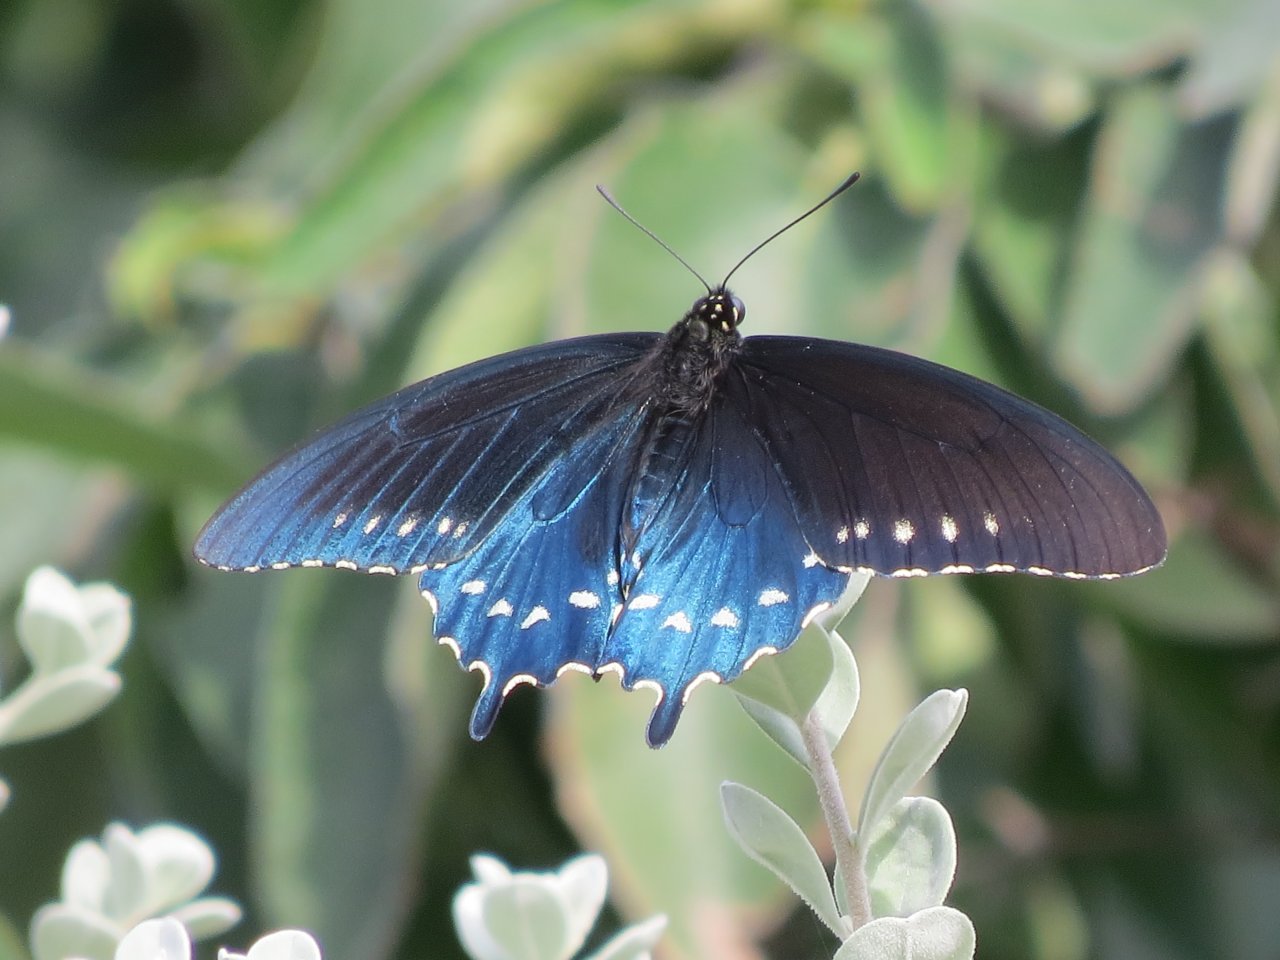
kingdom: Animalia
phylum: Arthropoda
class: Insecta
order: Lepidoptera
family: Papilionidae
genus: Battus
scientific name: Battus philenor
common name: Pipevine Swallowtail
